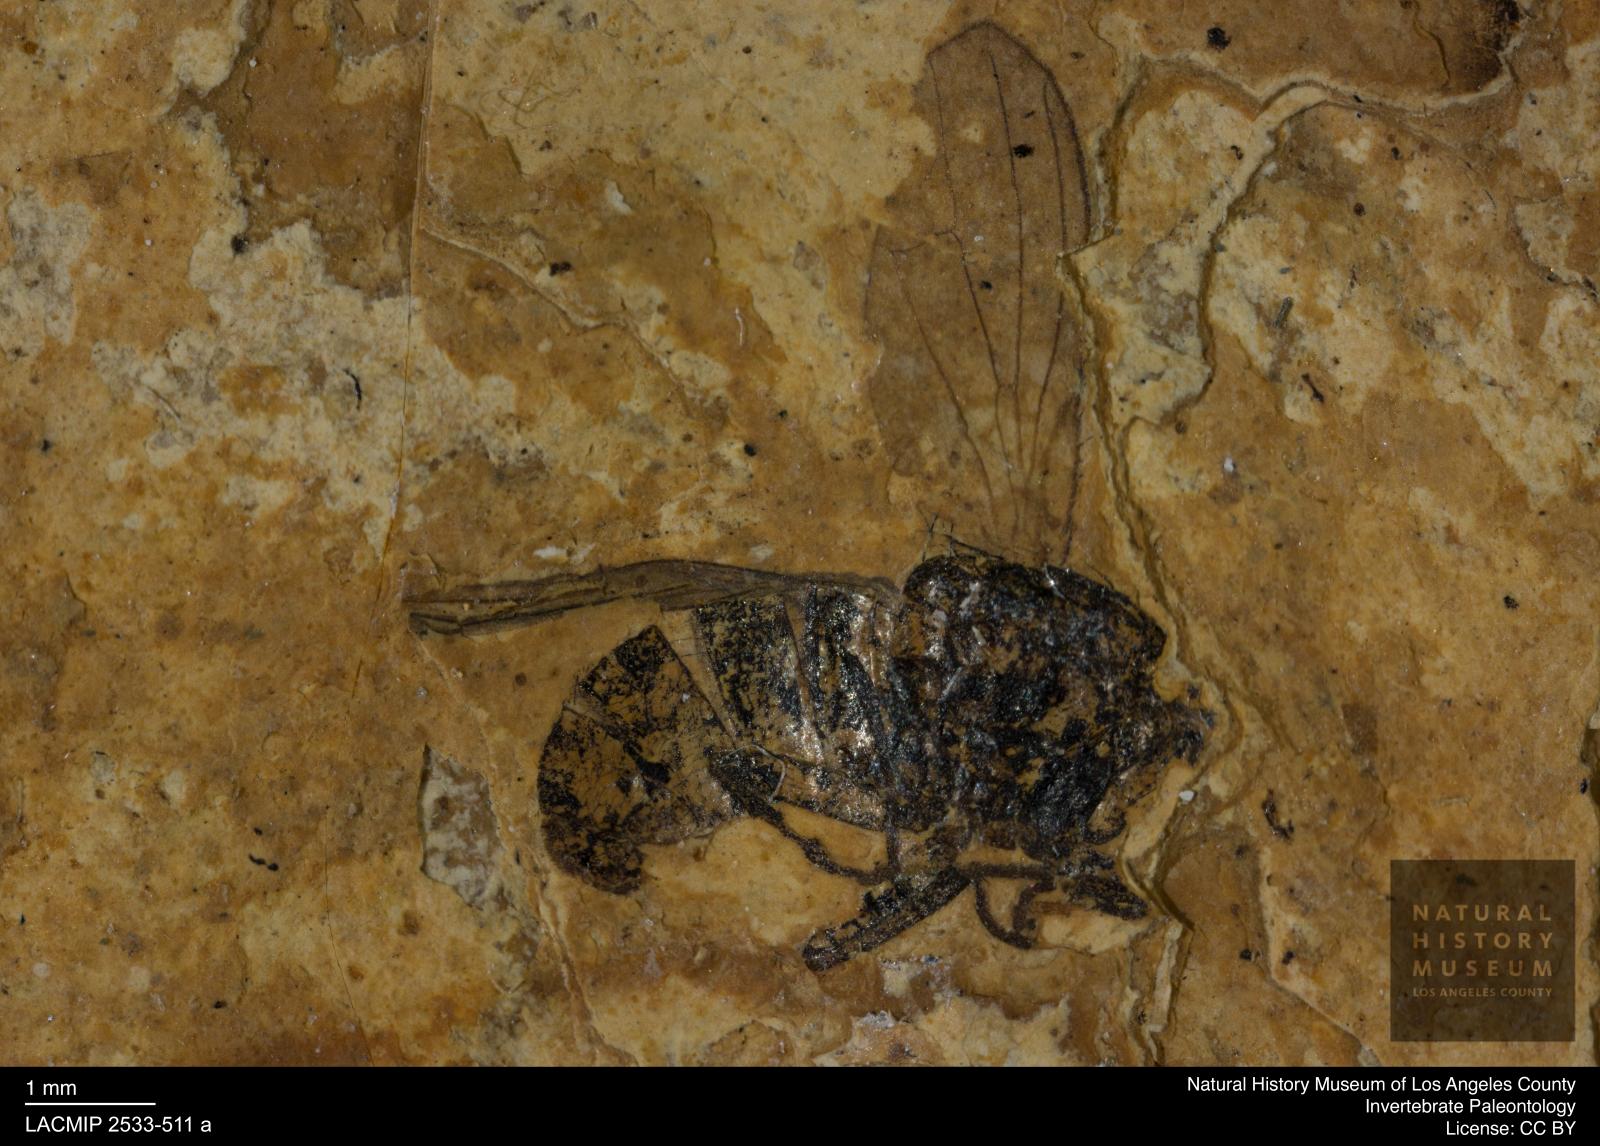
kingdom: Animalia
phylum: Arthropoda
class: Insecta
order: Diptera
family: Heleomyzidae
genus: Heleomyza
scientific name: Heleomyza bauckhorni
